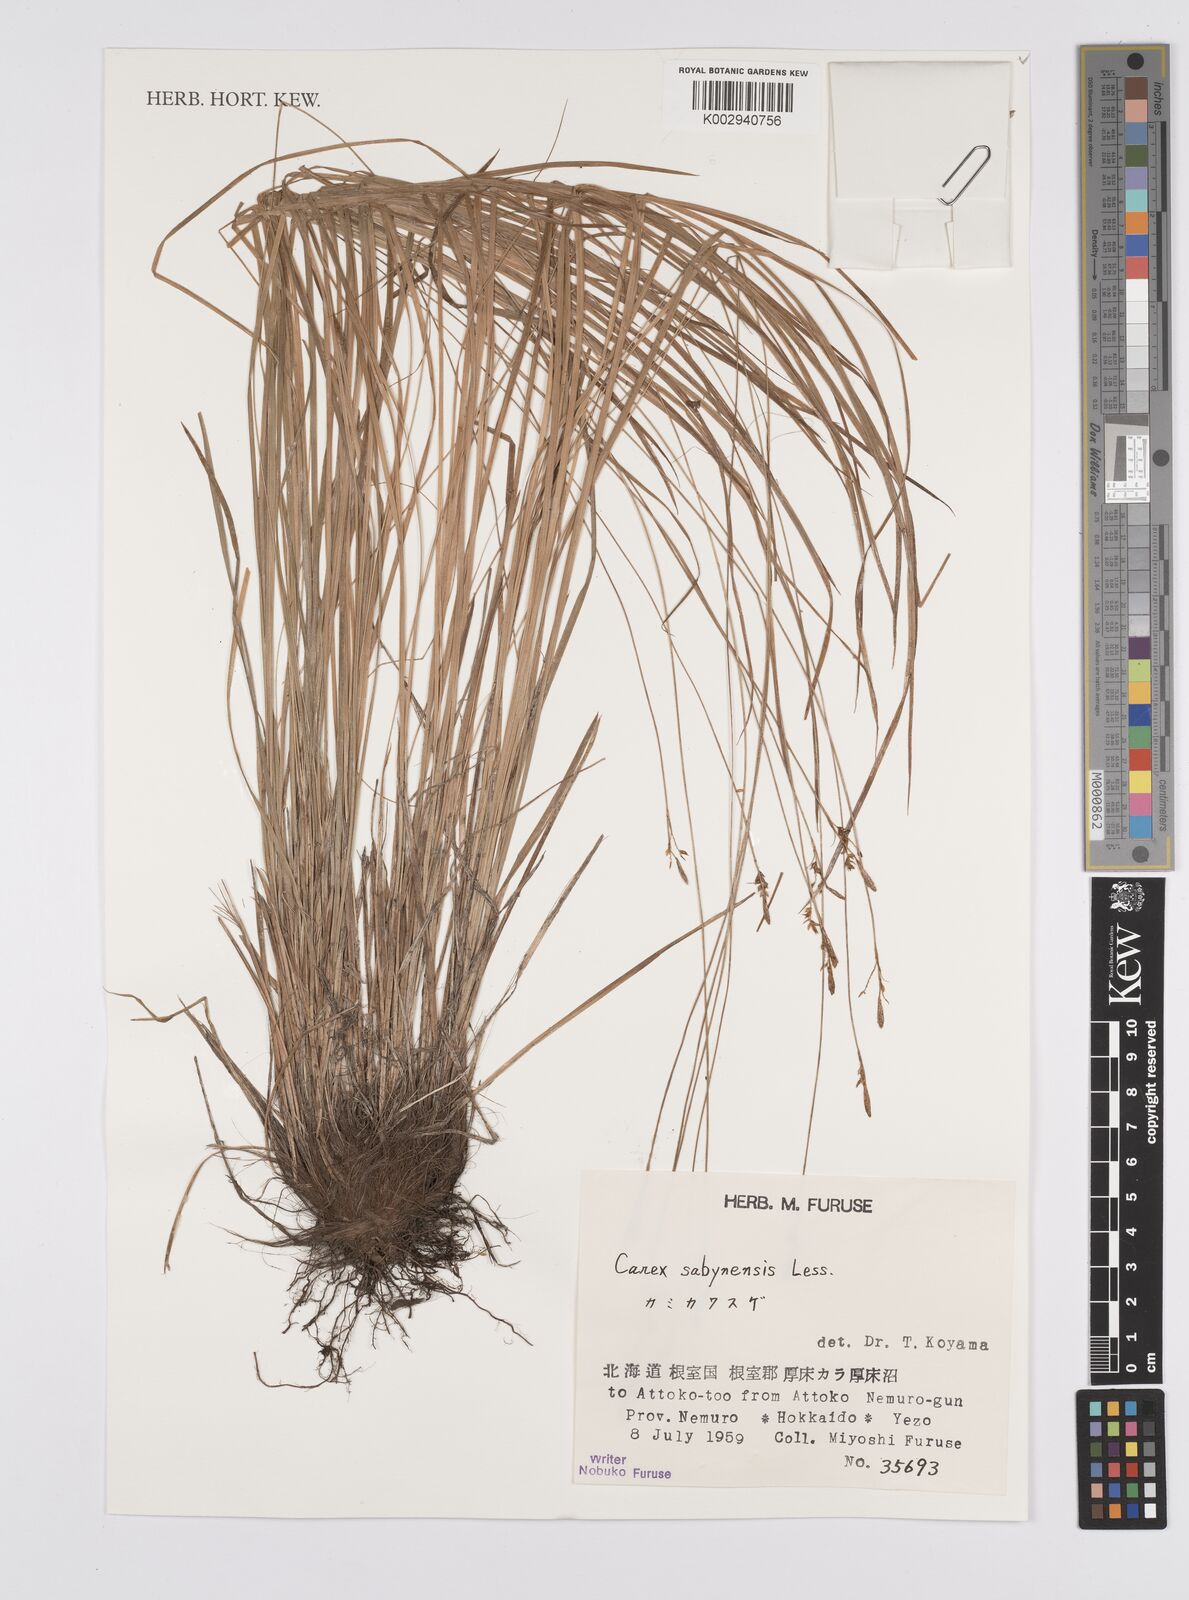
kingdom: Plantae
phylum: Tracheophyta
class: Liliopsida
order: Poales
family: Cyperaceae
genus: Carex
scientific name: Carex umbrosa
